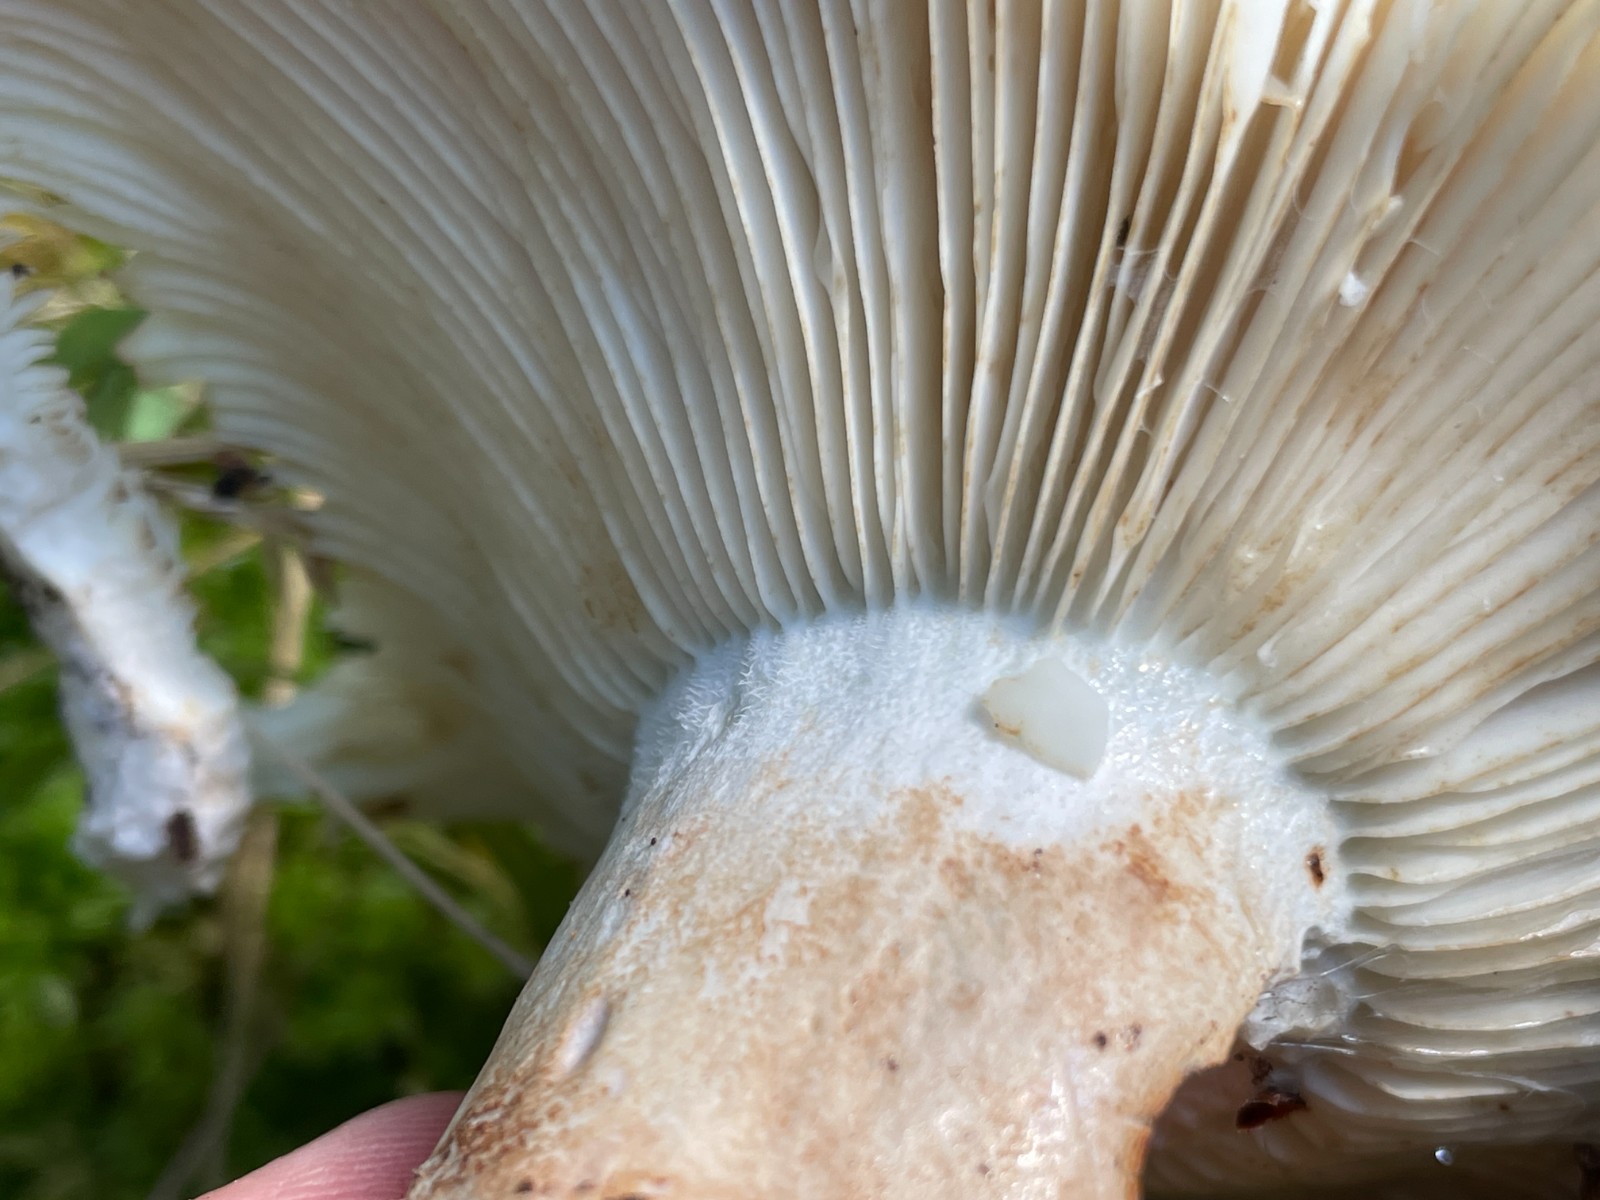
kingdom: Fungi
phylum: Basidiomycota
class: Agaricomycetes
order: Russulales
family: Russulaceae
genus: Russula
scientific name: Russula chloroides
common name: grønhalset tragt-skørhat
